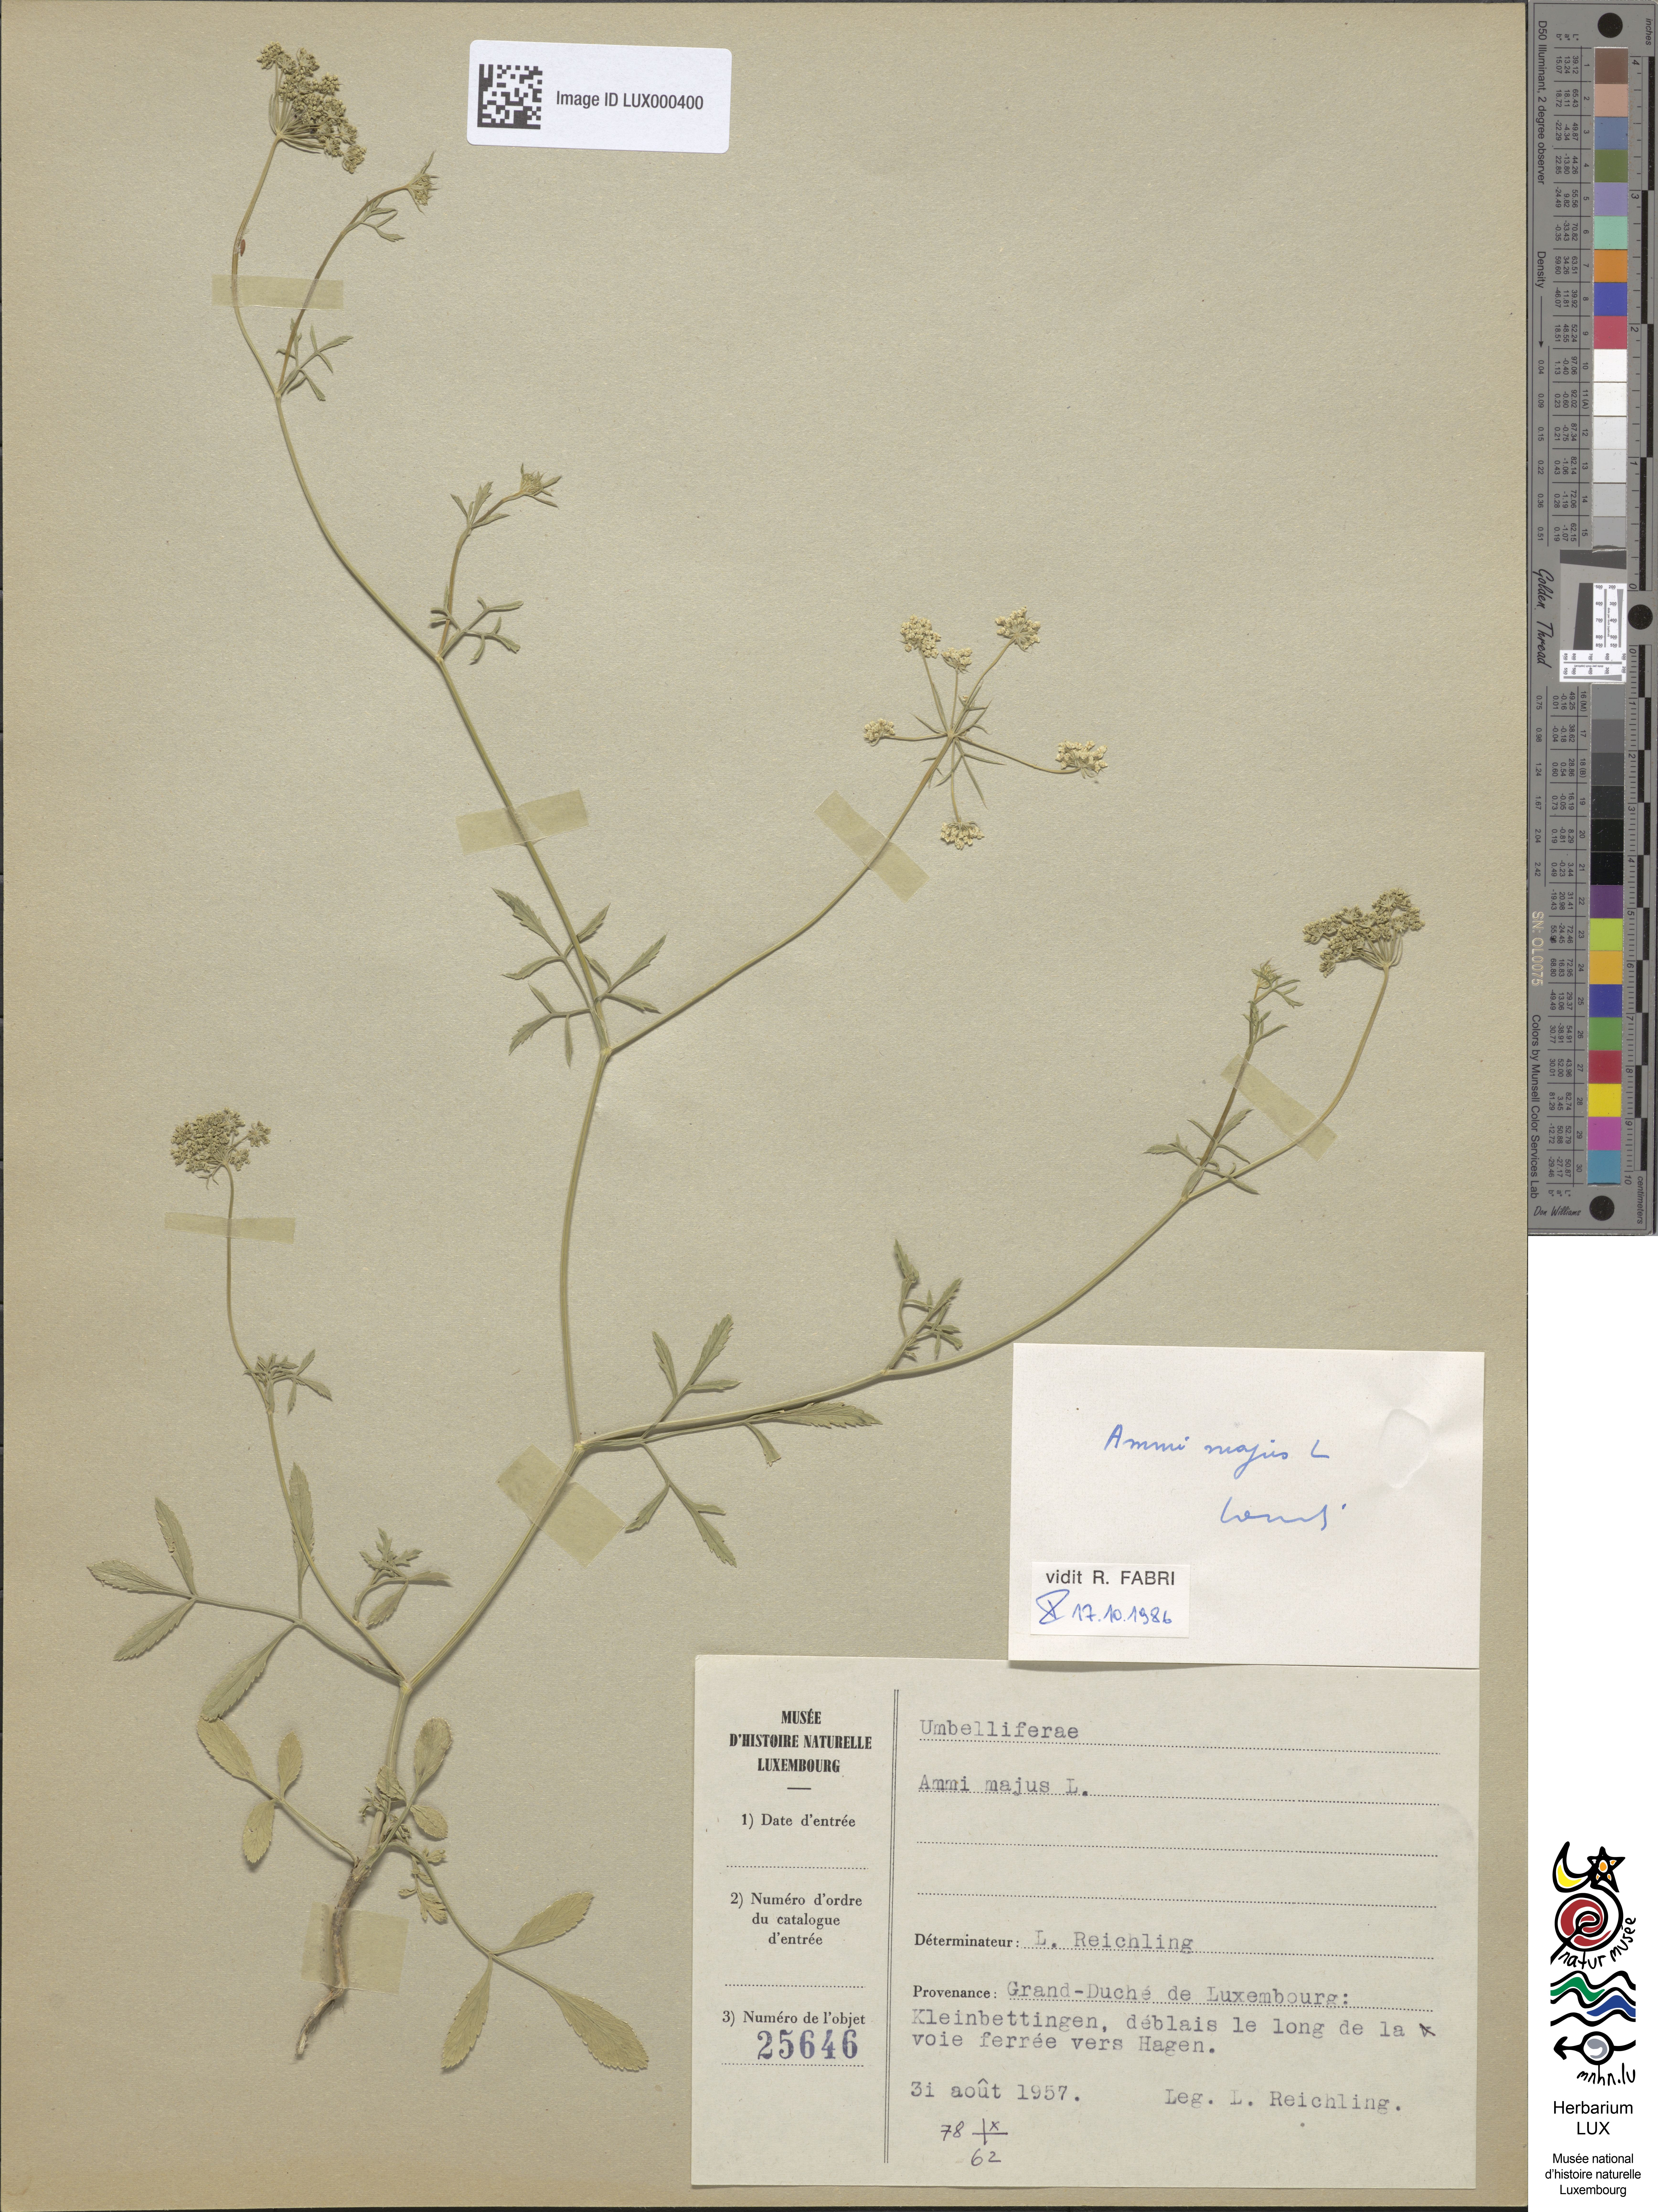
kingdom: Plantae
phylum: Tracheophyta
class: Magnoliopsida
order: Apiales
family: Apiaceae
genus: Ammi
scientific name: Ammi majus
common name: Bullwort
